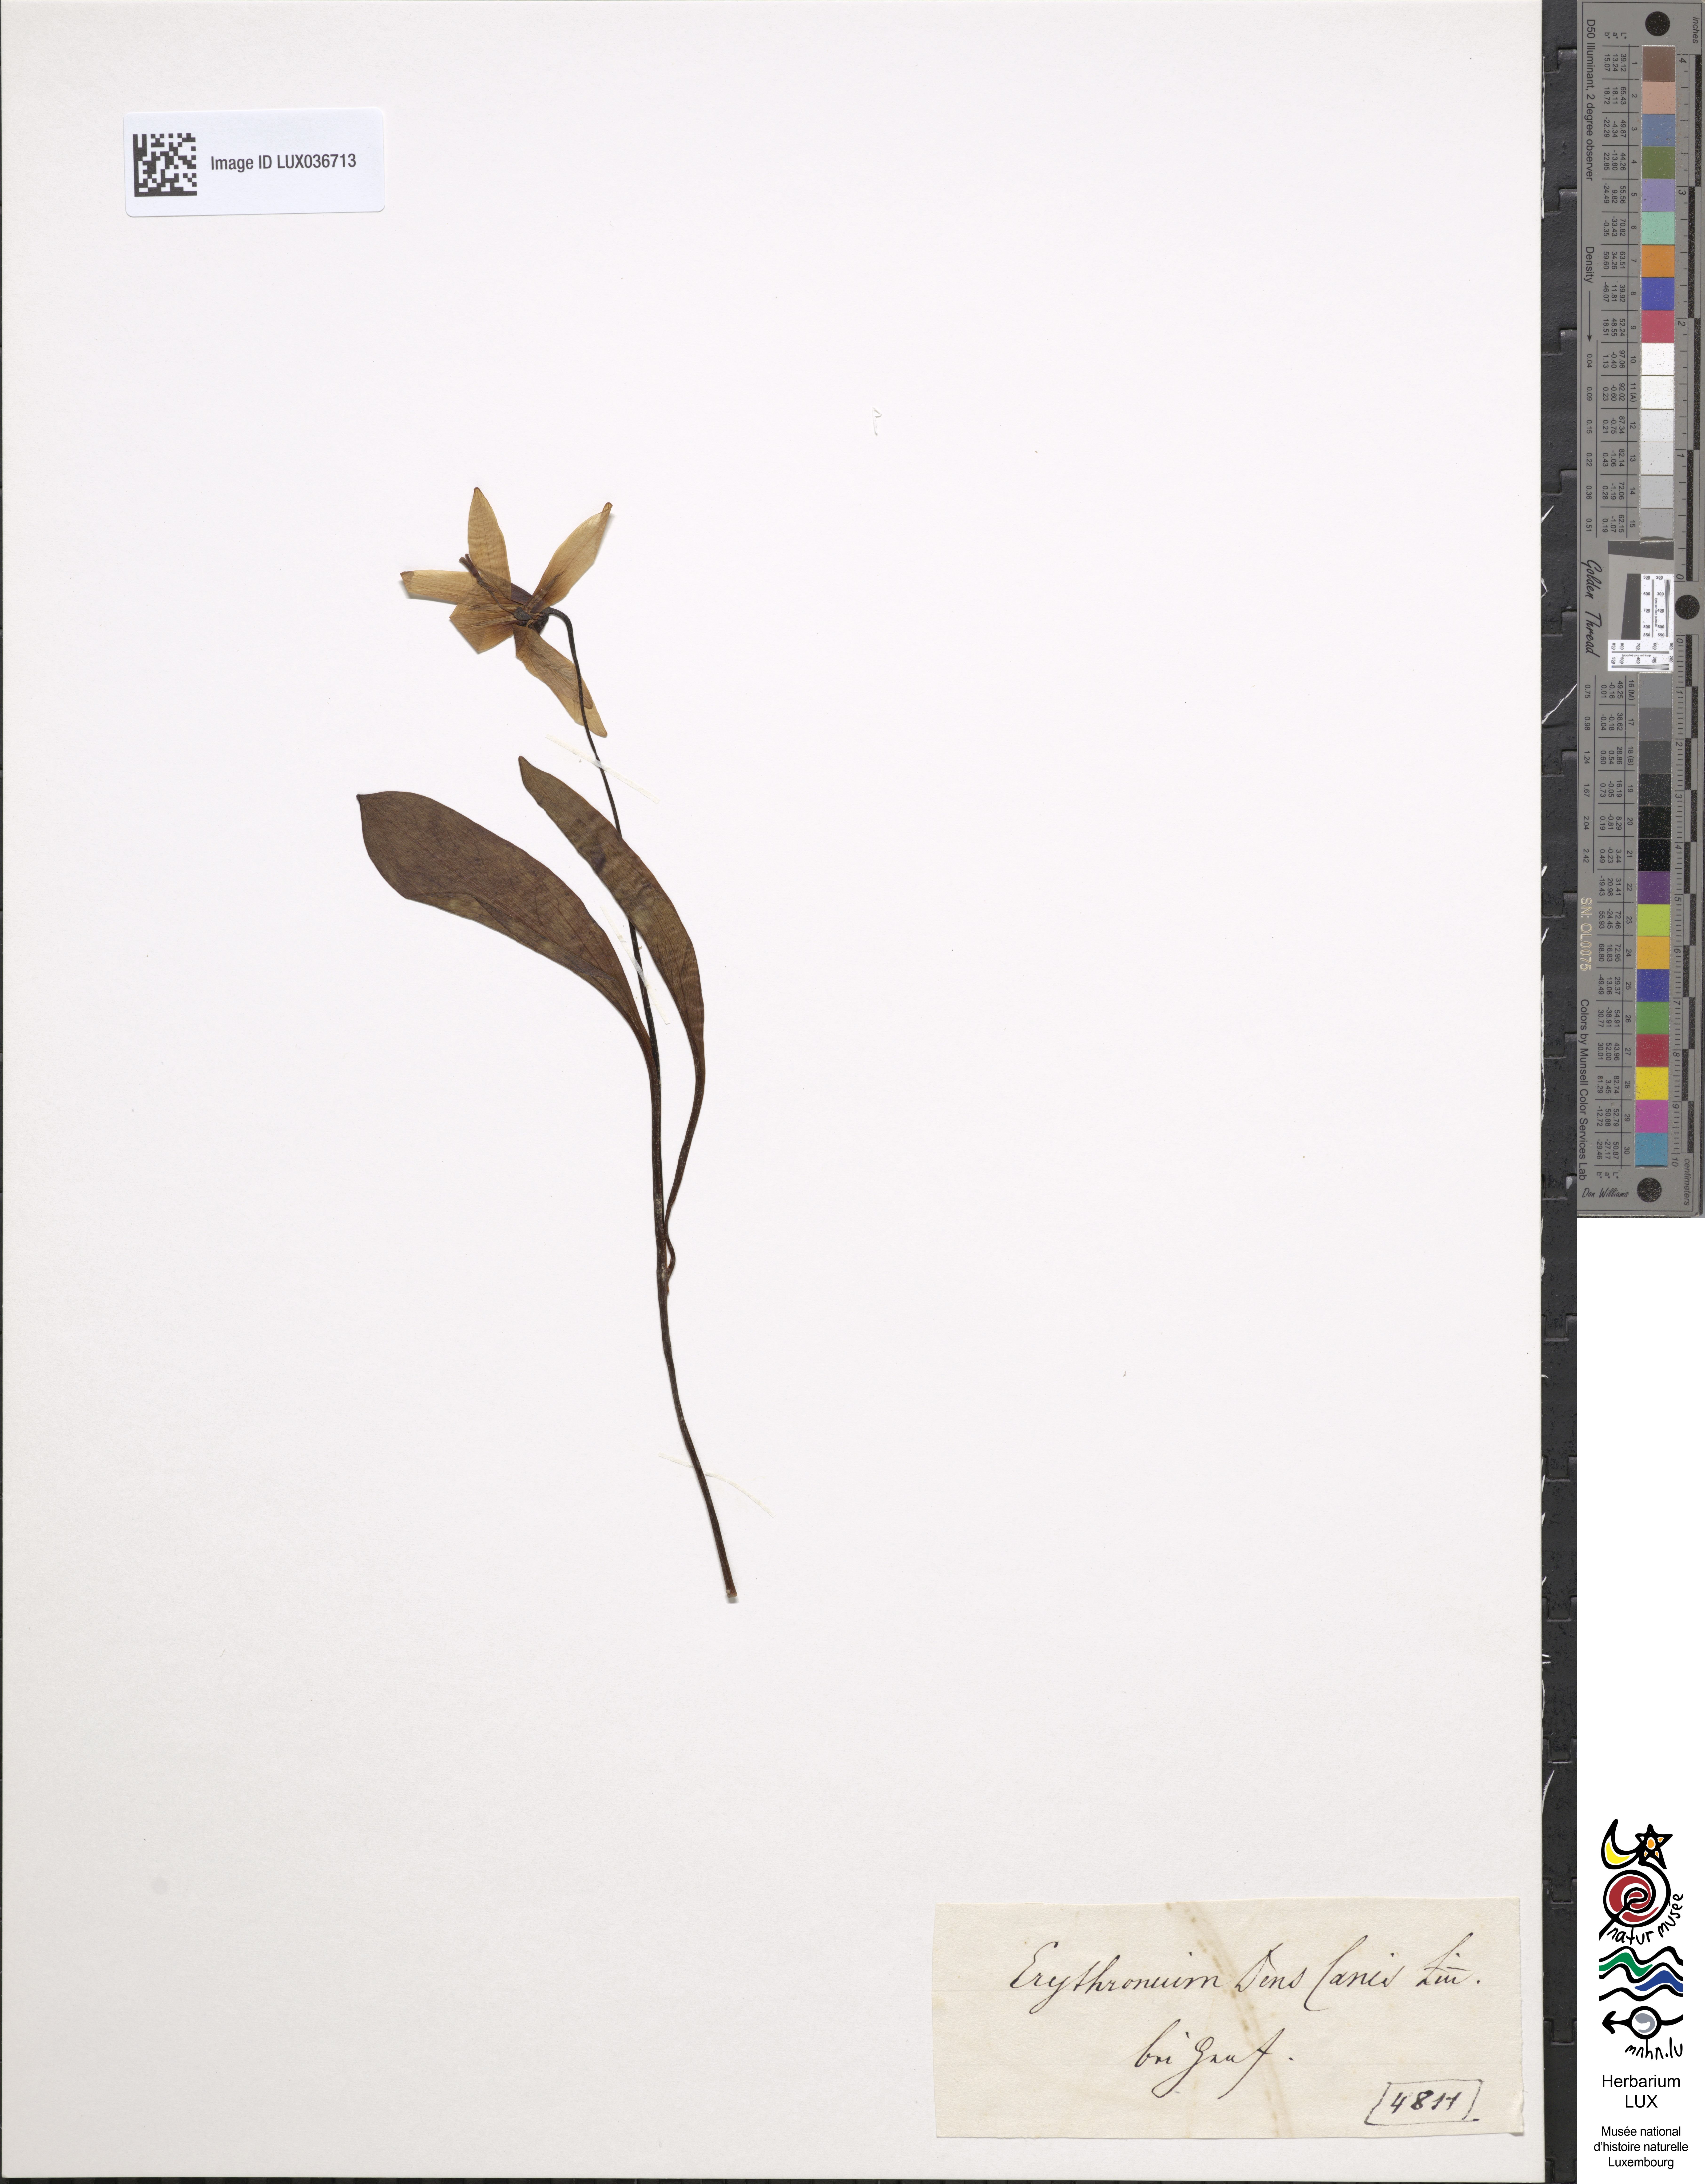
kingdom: Plantae
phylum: Tracheophyta
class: Liliopsida
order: Liliales
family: Liliaceae
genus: Erythronium
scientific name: Erythronium dens-canis
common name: Dog's-tooth-violet
